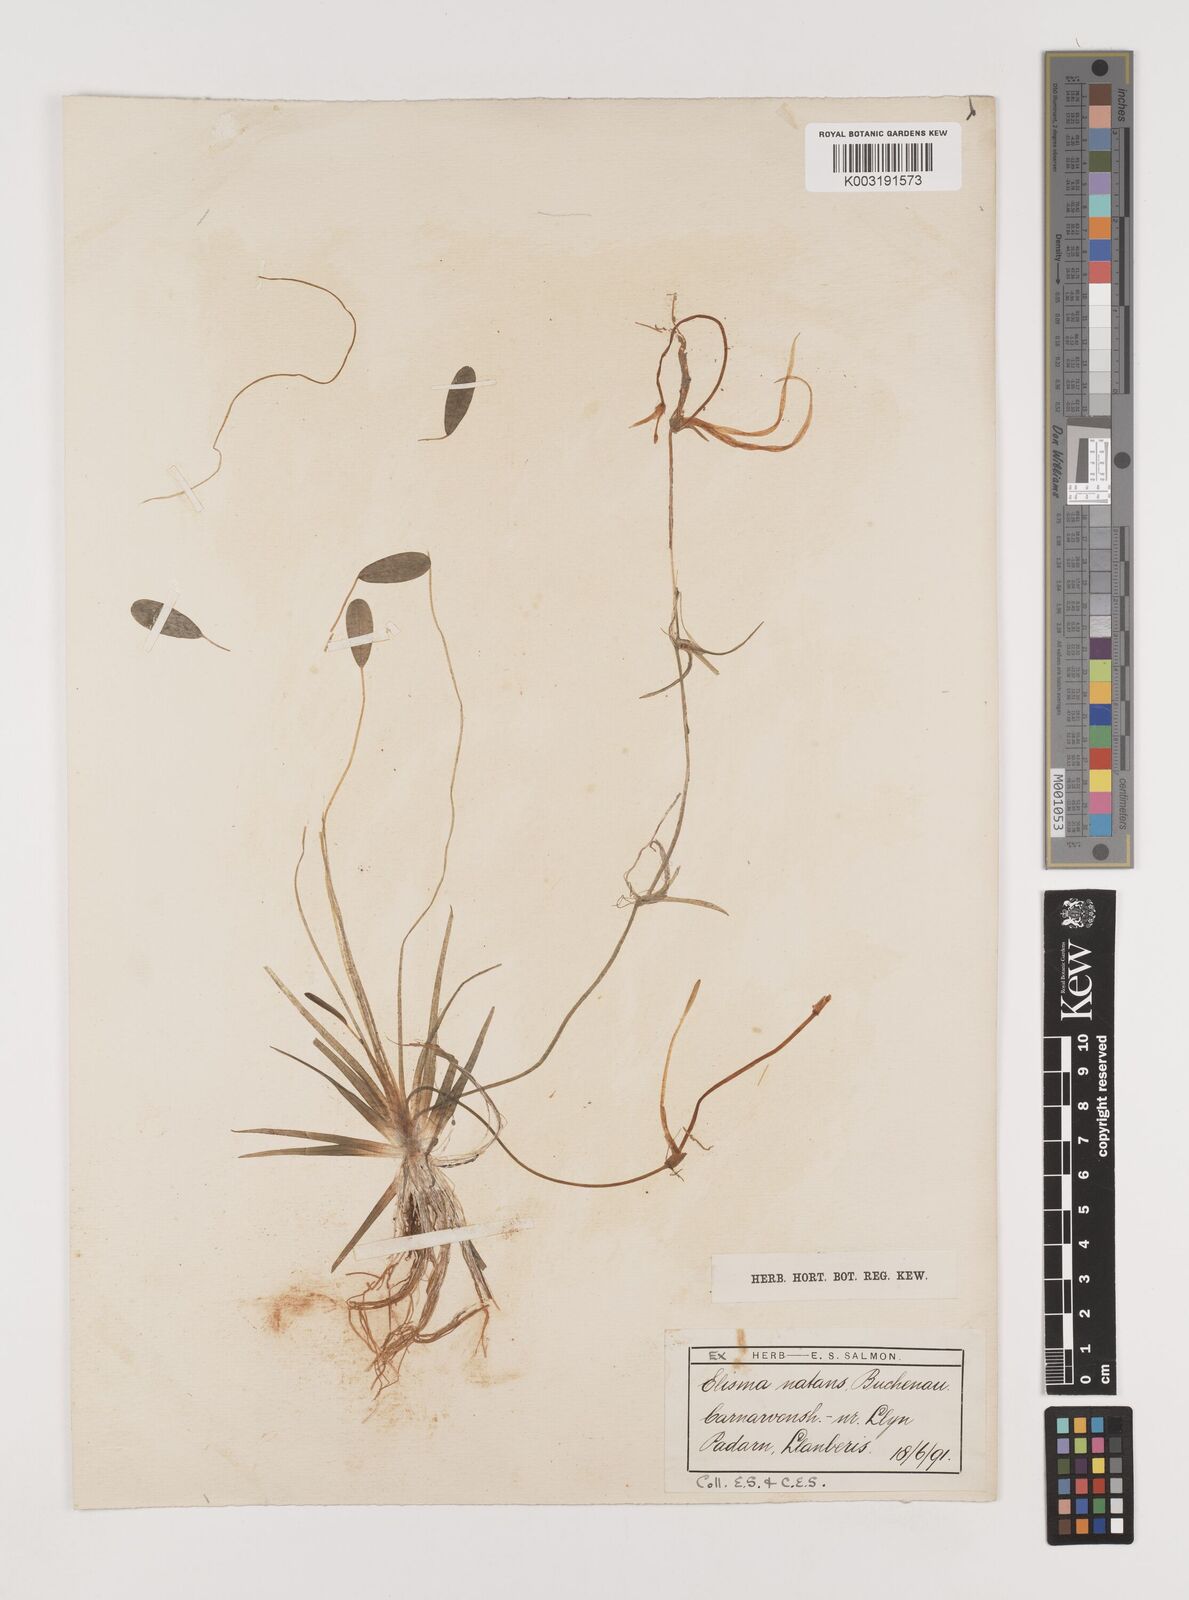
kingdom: Plantae
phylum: Tracheophyta
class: Liliopsida
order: Alismatales
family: Alismataceae
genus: Luronium
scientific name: Luronium natans
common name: Floating water-plantain
